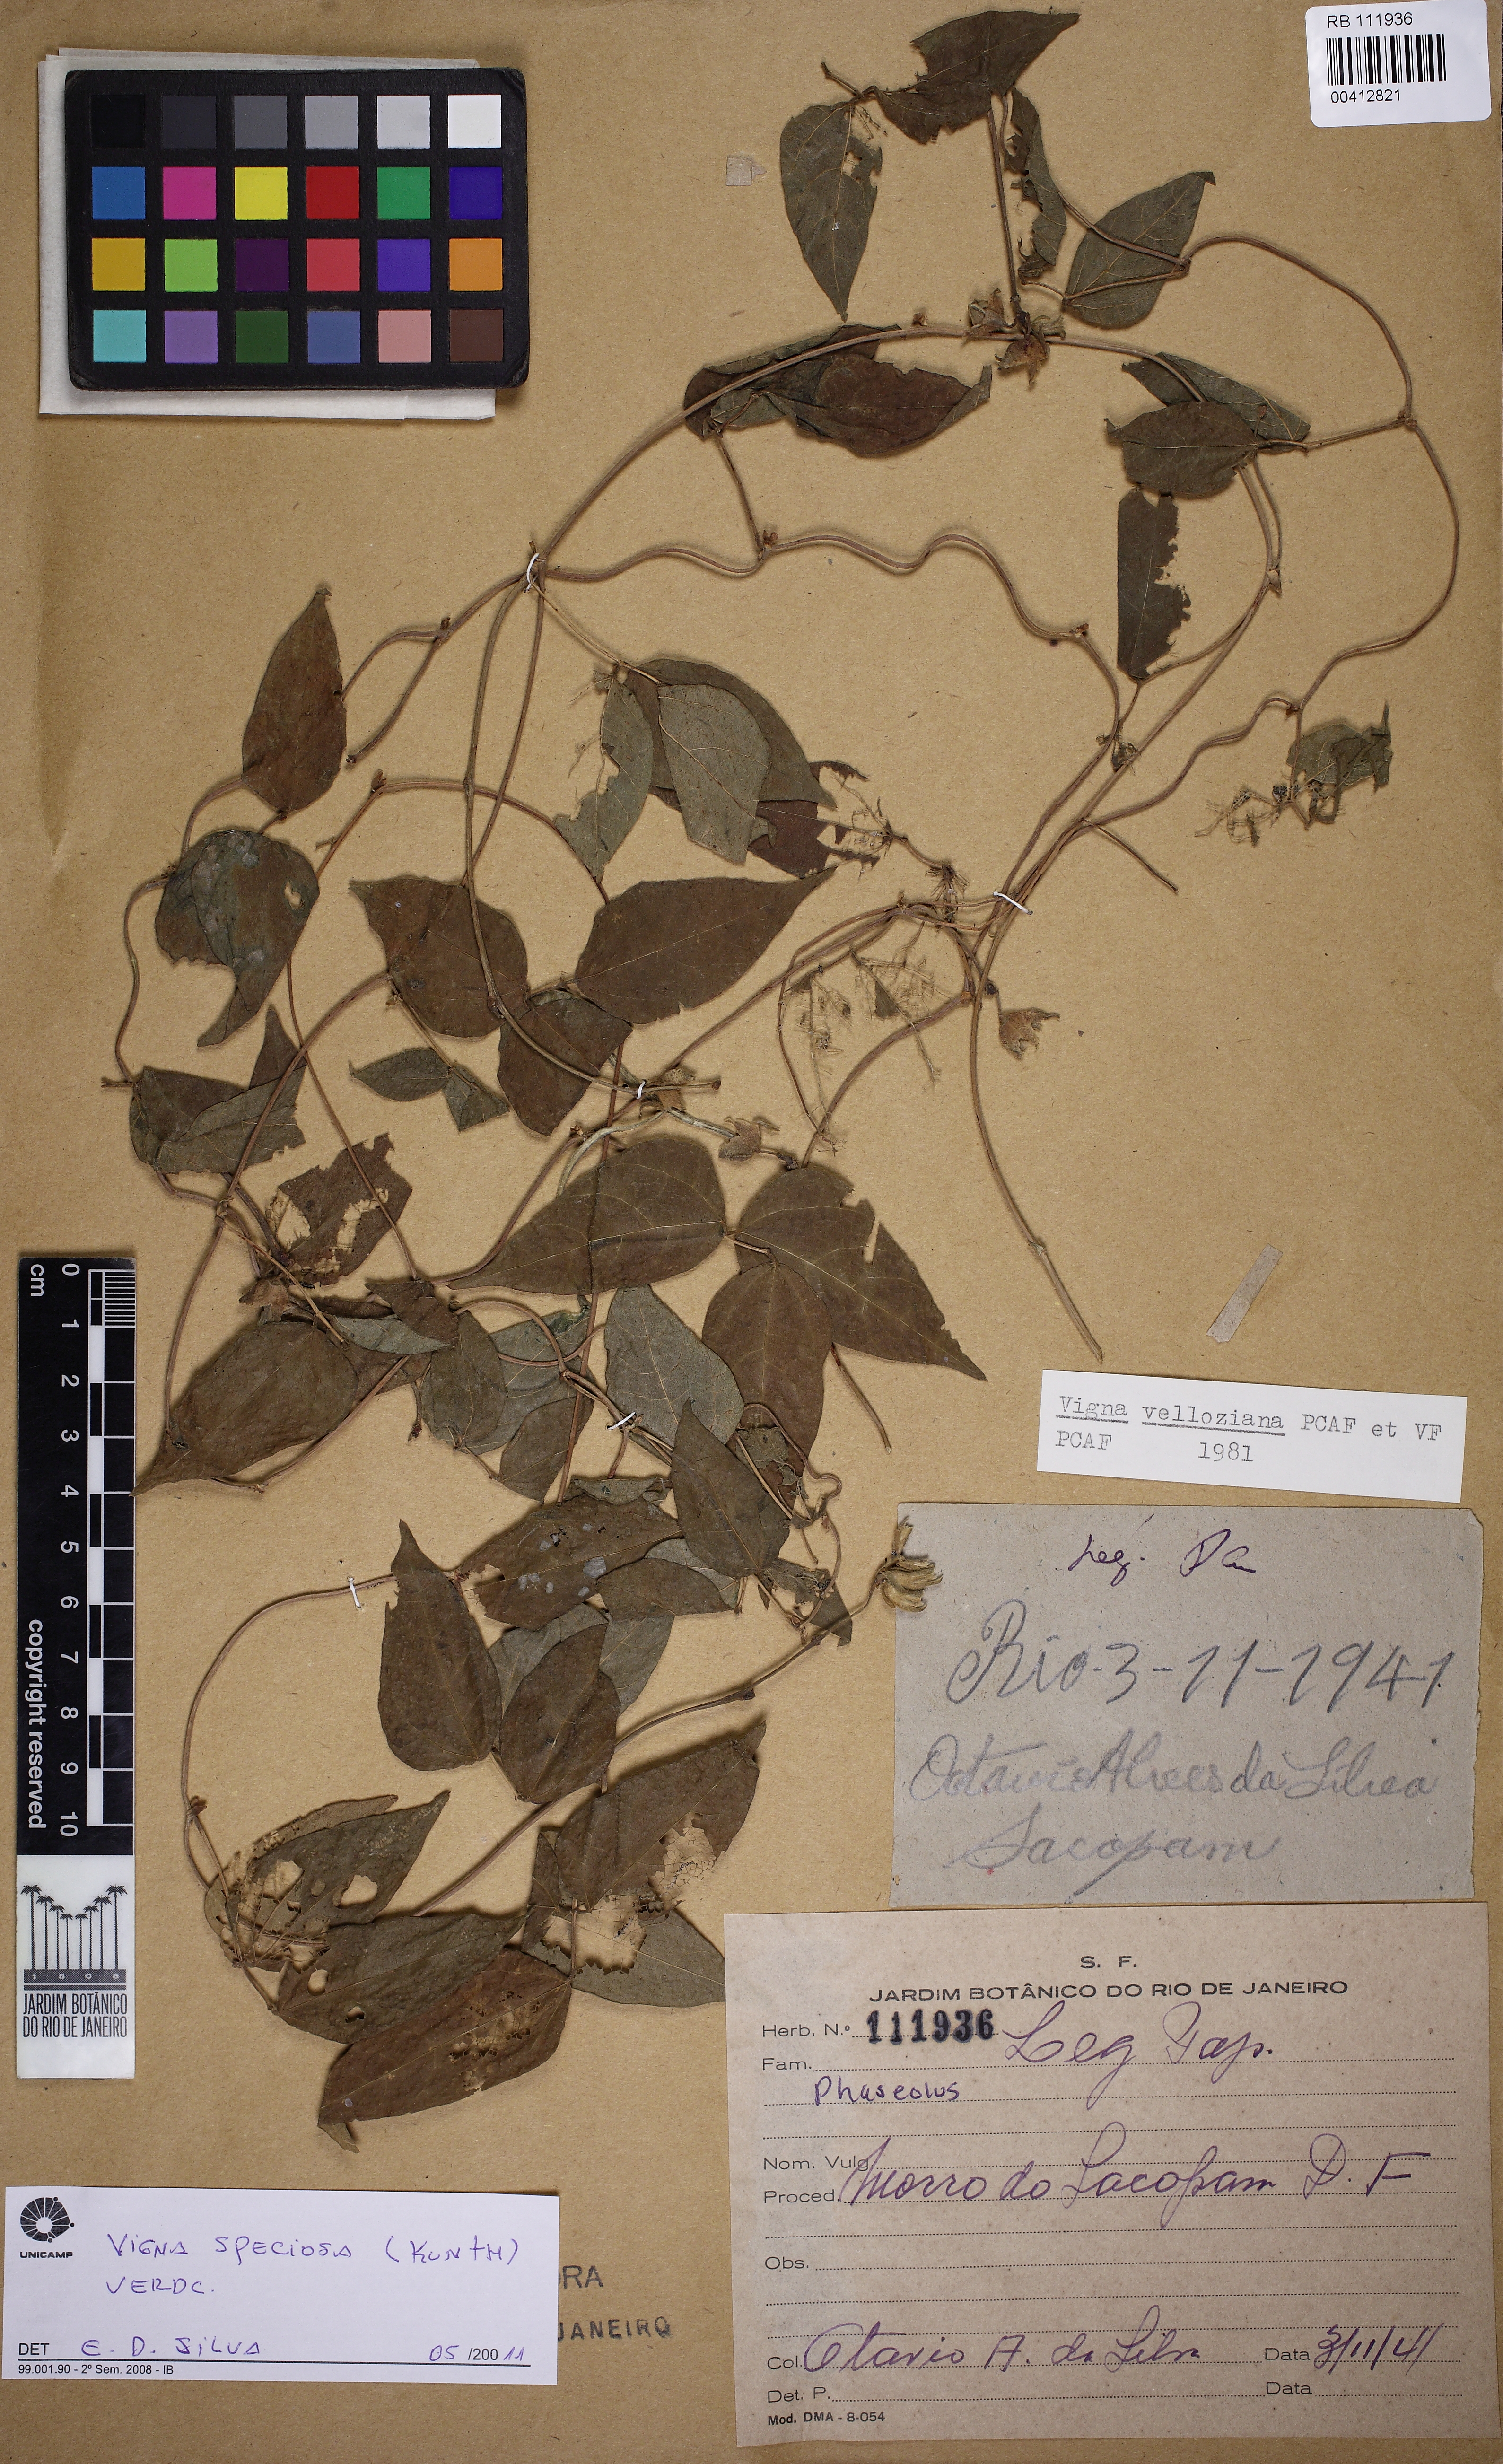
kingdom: Plantae
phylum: Tracheophyta
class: Magnoliopsida
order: Fabales
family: Fabaceae
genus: Sigmoidotropis
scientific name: Sigmoidotropis speciosa
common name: Snail flower
